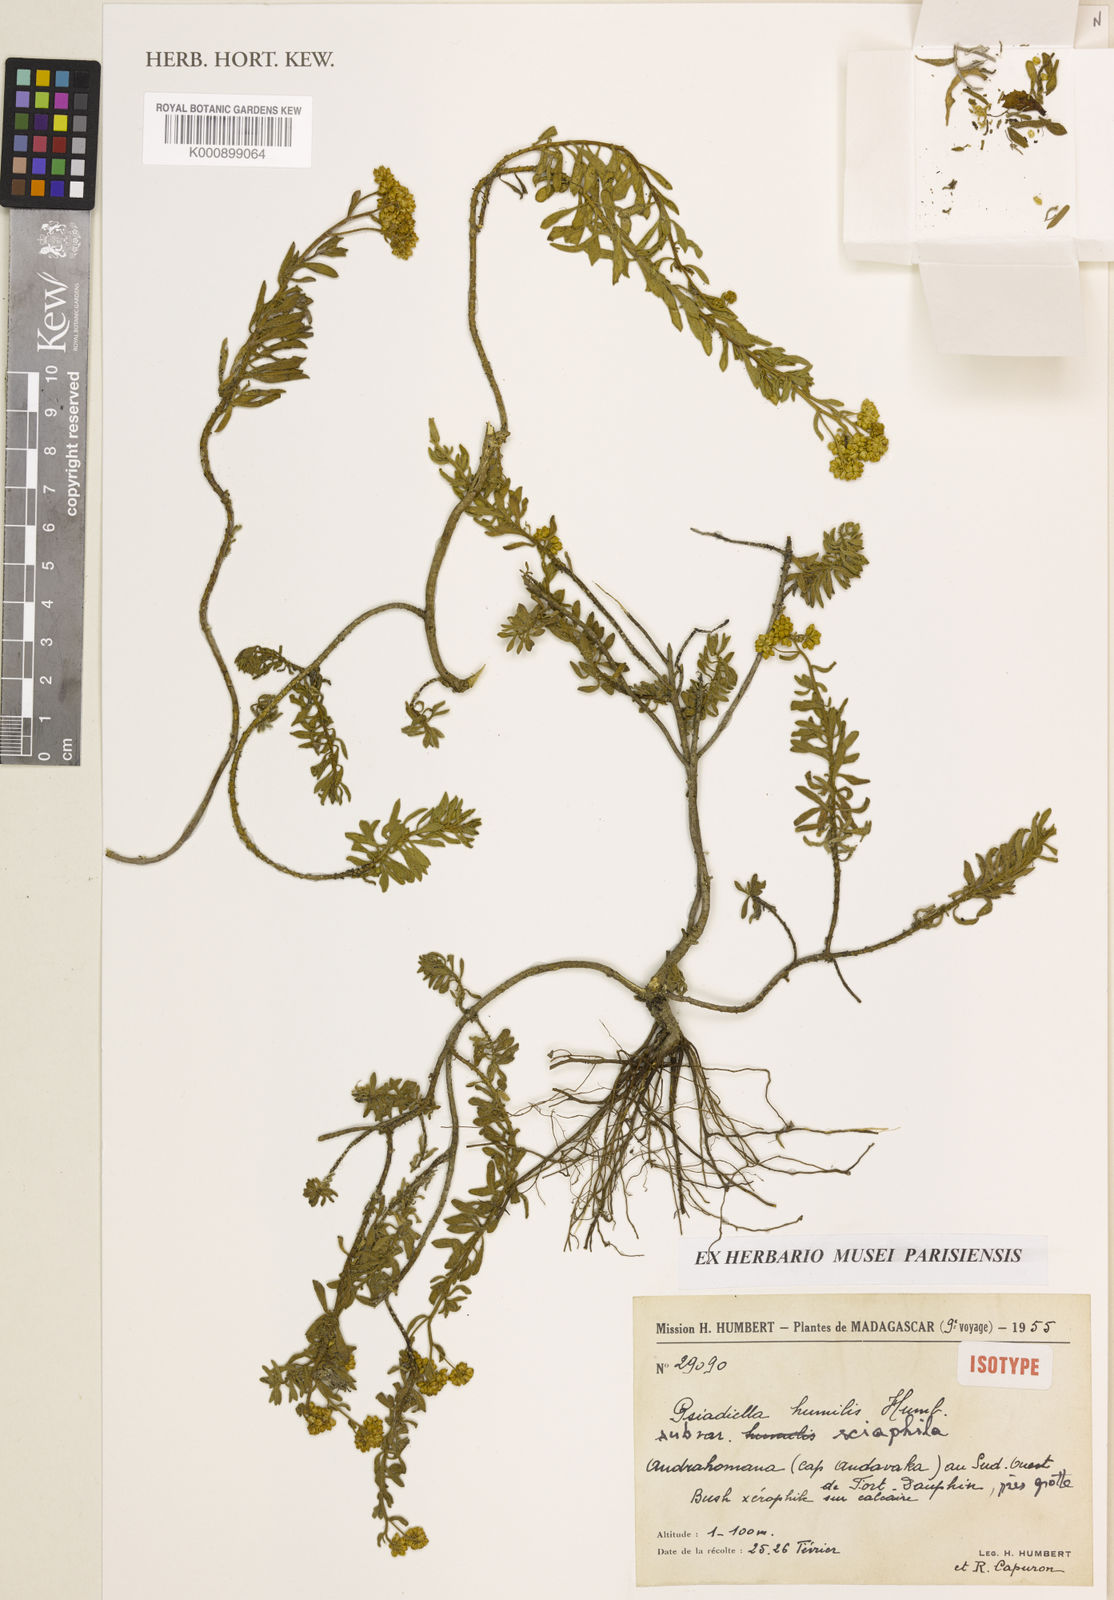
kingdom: Plantae
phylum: Tracheophyta
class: Magnoliopsida
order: Asterales
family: Asteraceae
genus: Psiadia
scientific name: Psiadia humilis
